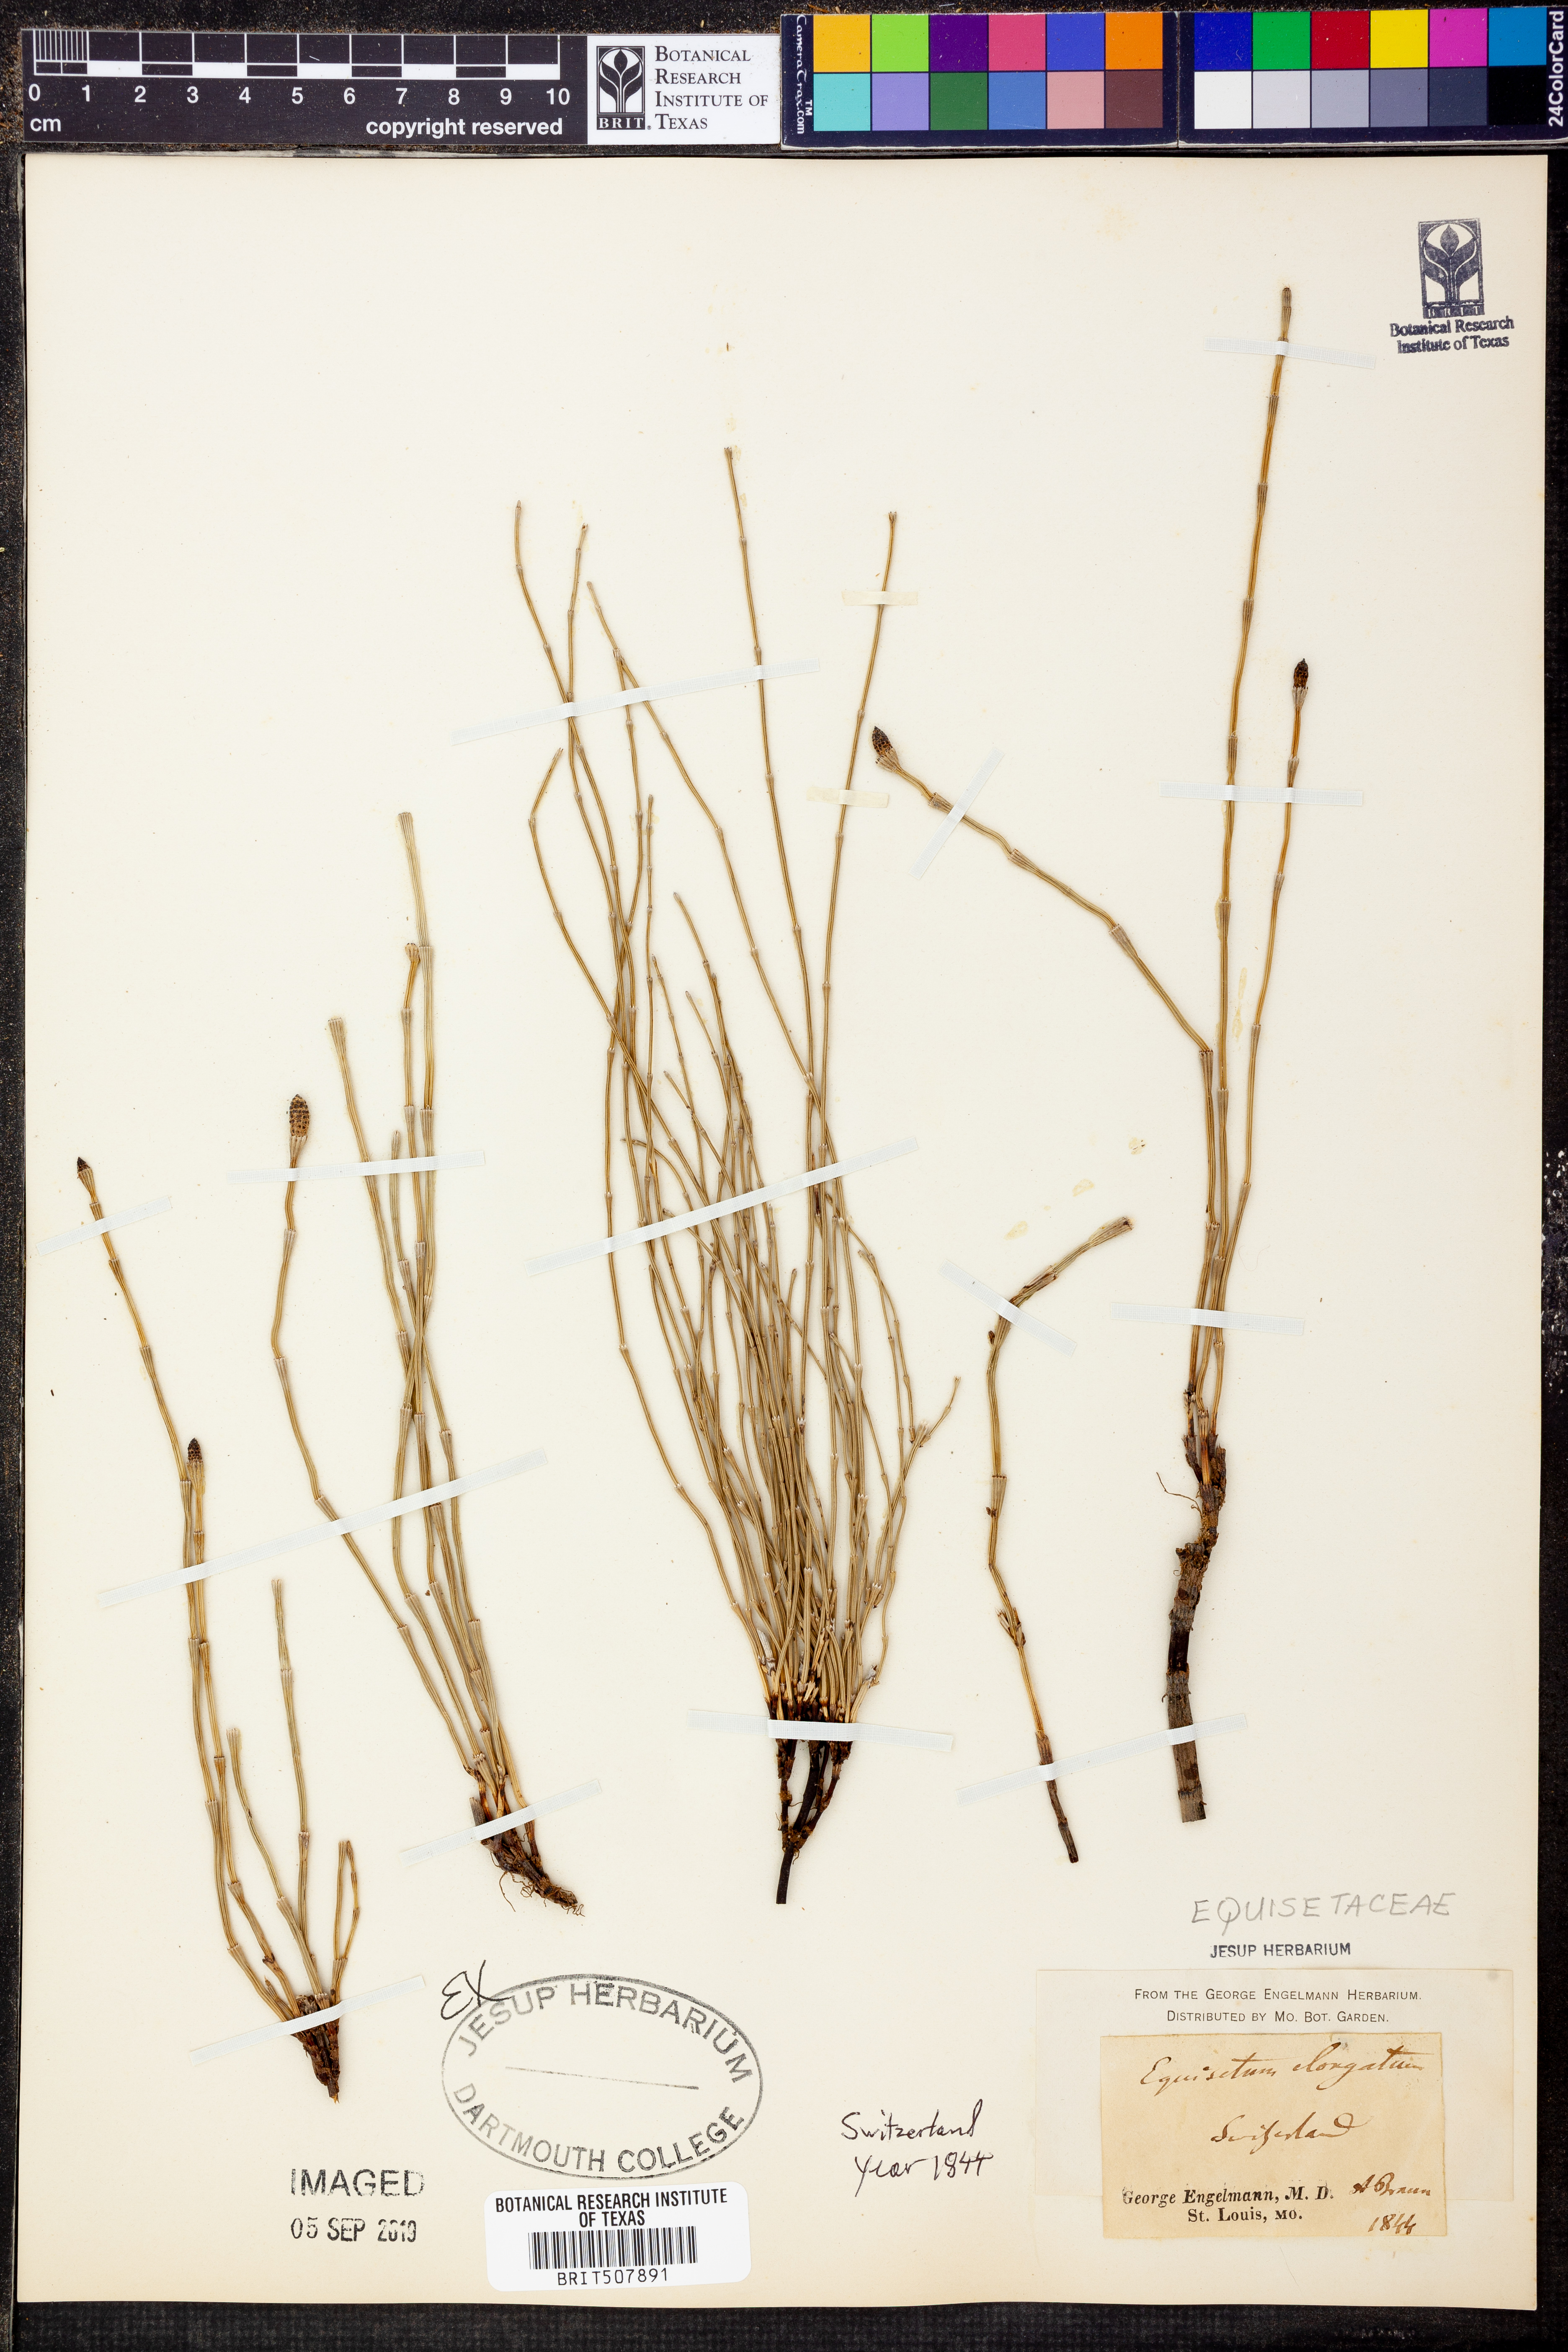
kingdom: Plantae
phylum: Tracheophyta
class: Polypodiopsida
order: Equisetales
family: Equisetaceae
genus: Equisetum
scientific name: Equisetum ramosissimum
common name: Branched horsetail
